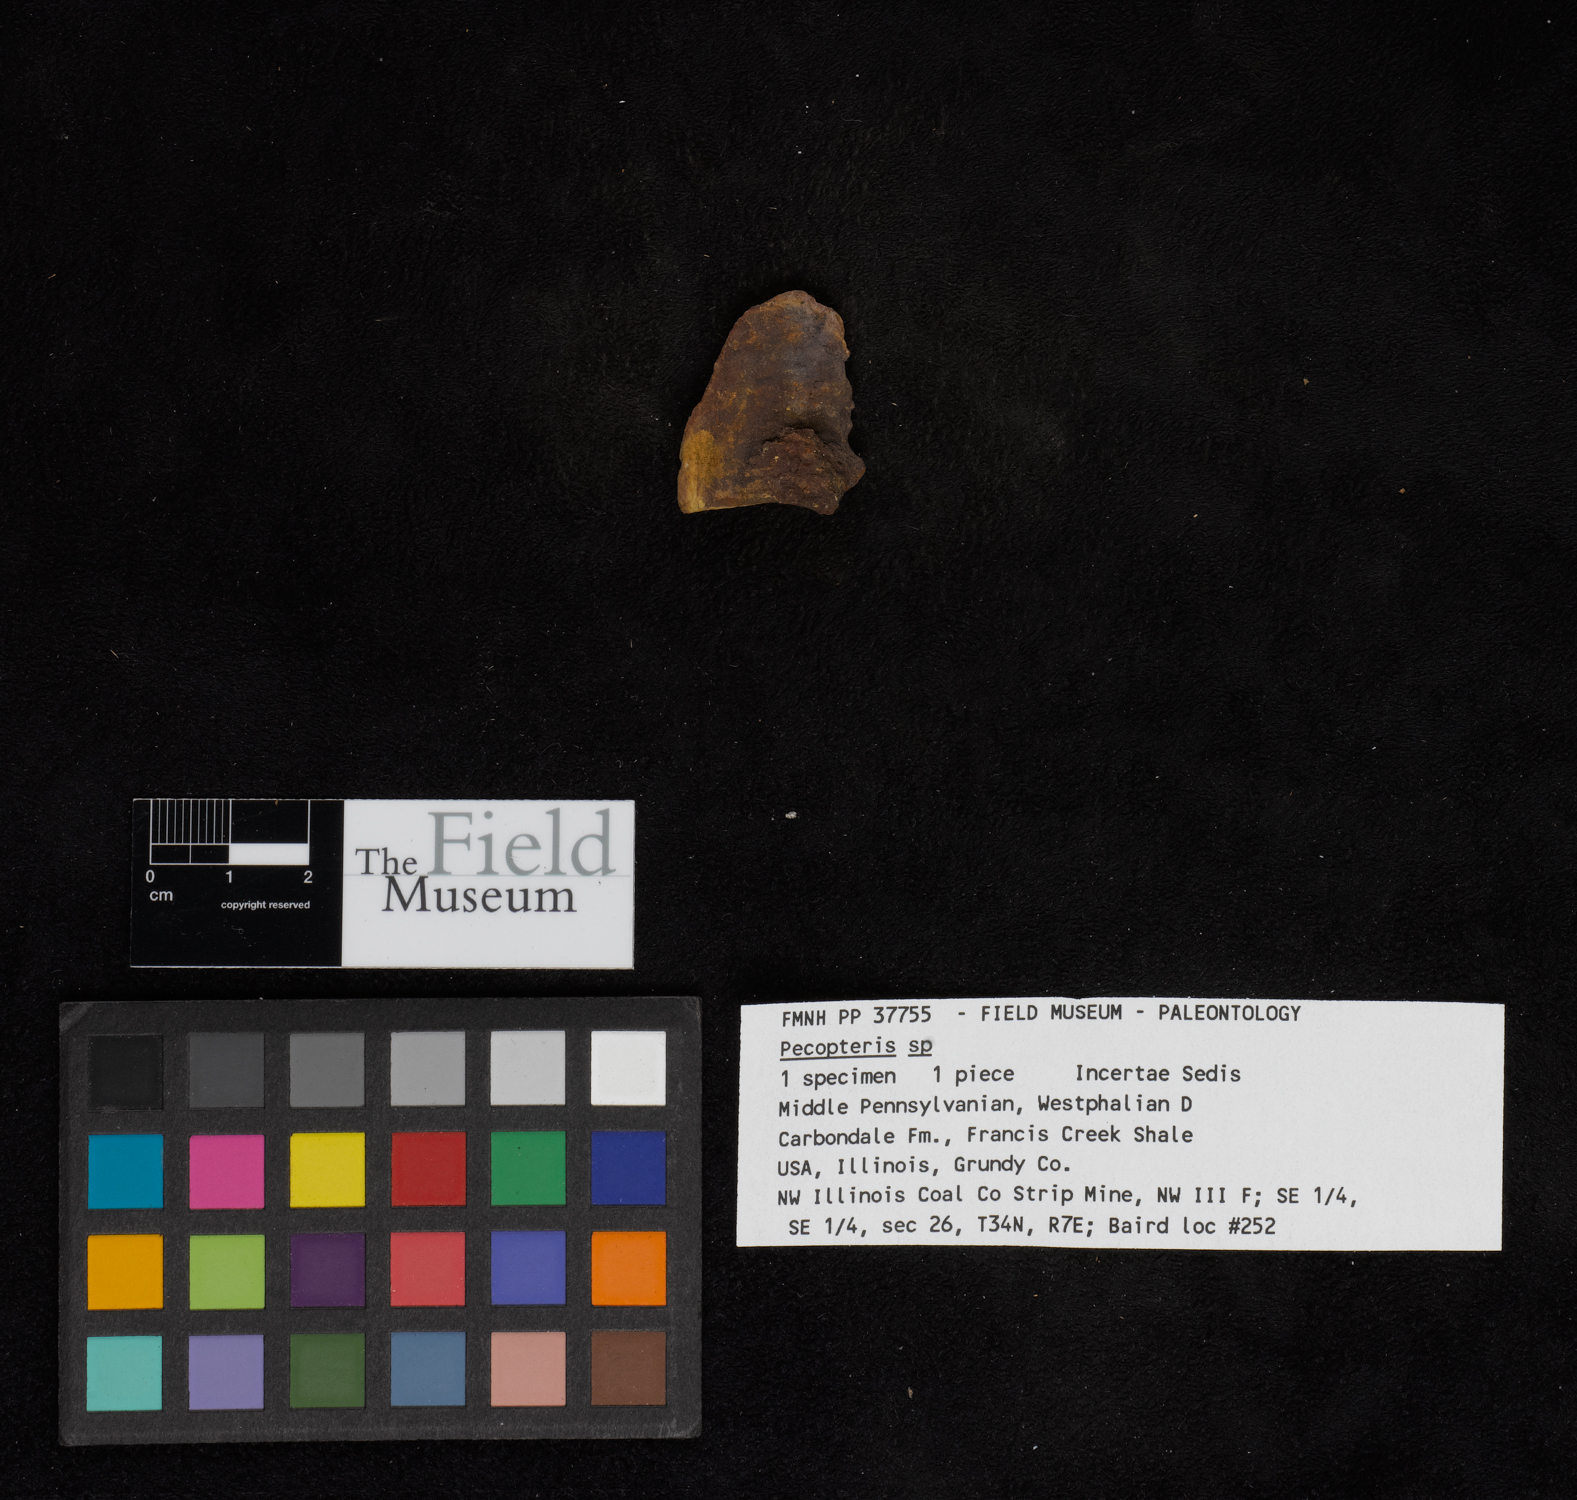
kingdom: Plantae
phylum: Tracheophyta
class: Polypodiopsida
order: Marattiales
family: Asterothecaceae
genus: Pecopteris
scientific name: Pecopteris
